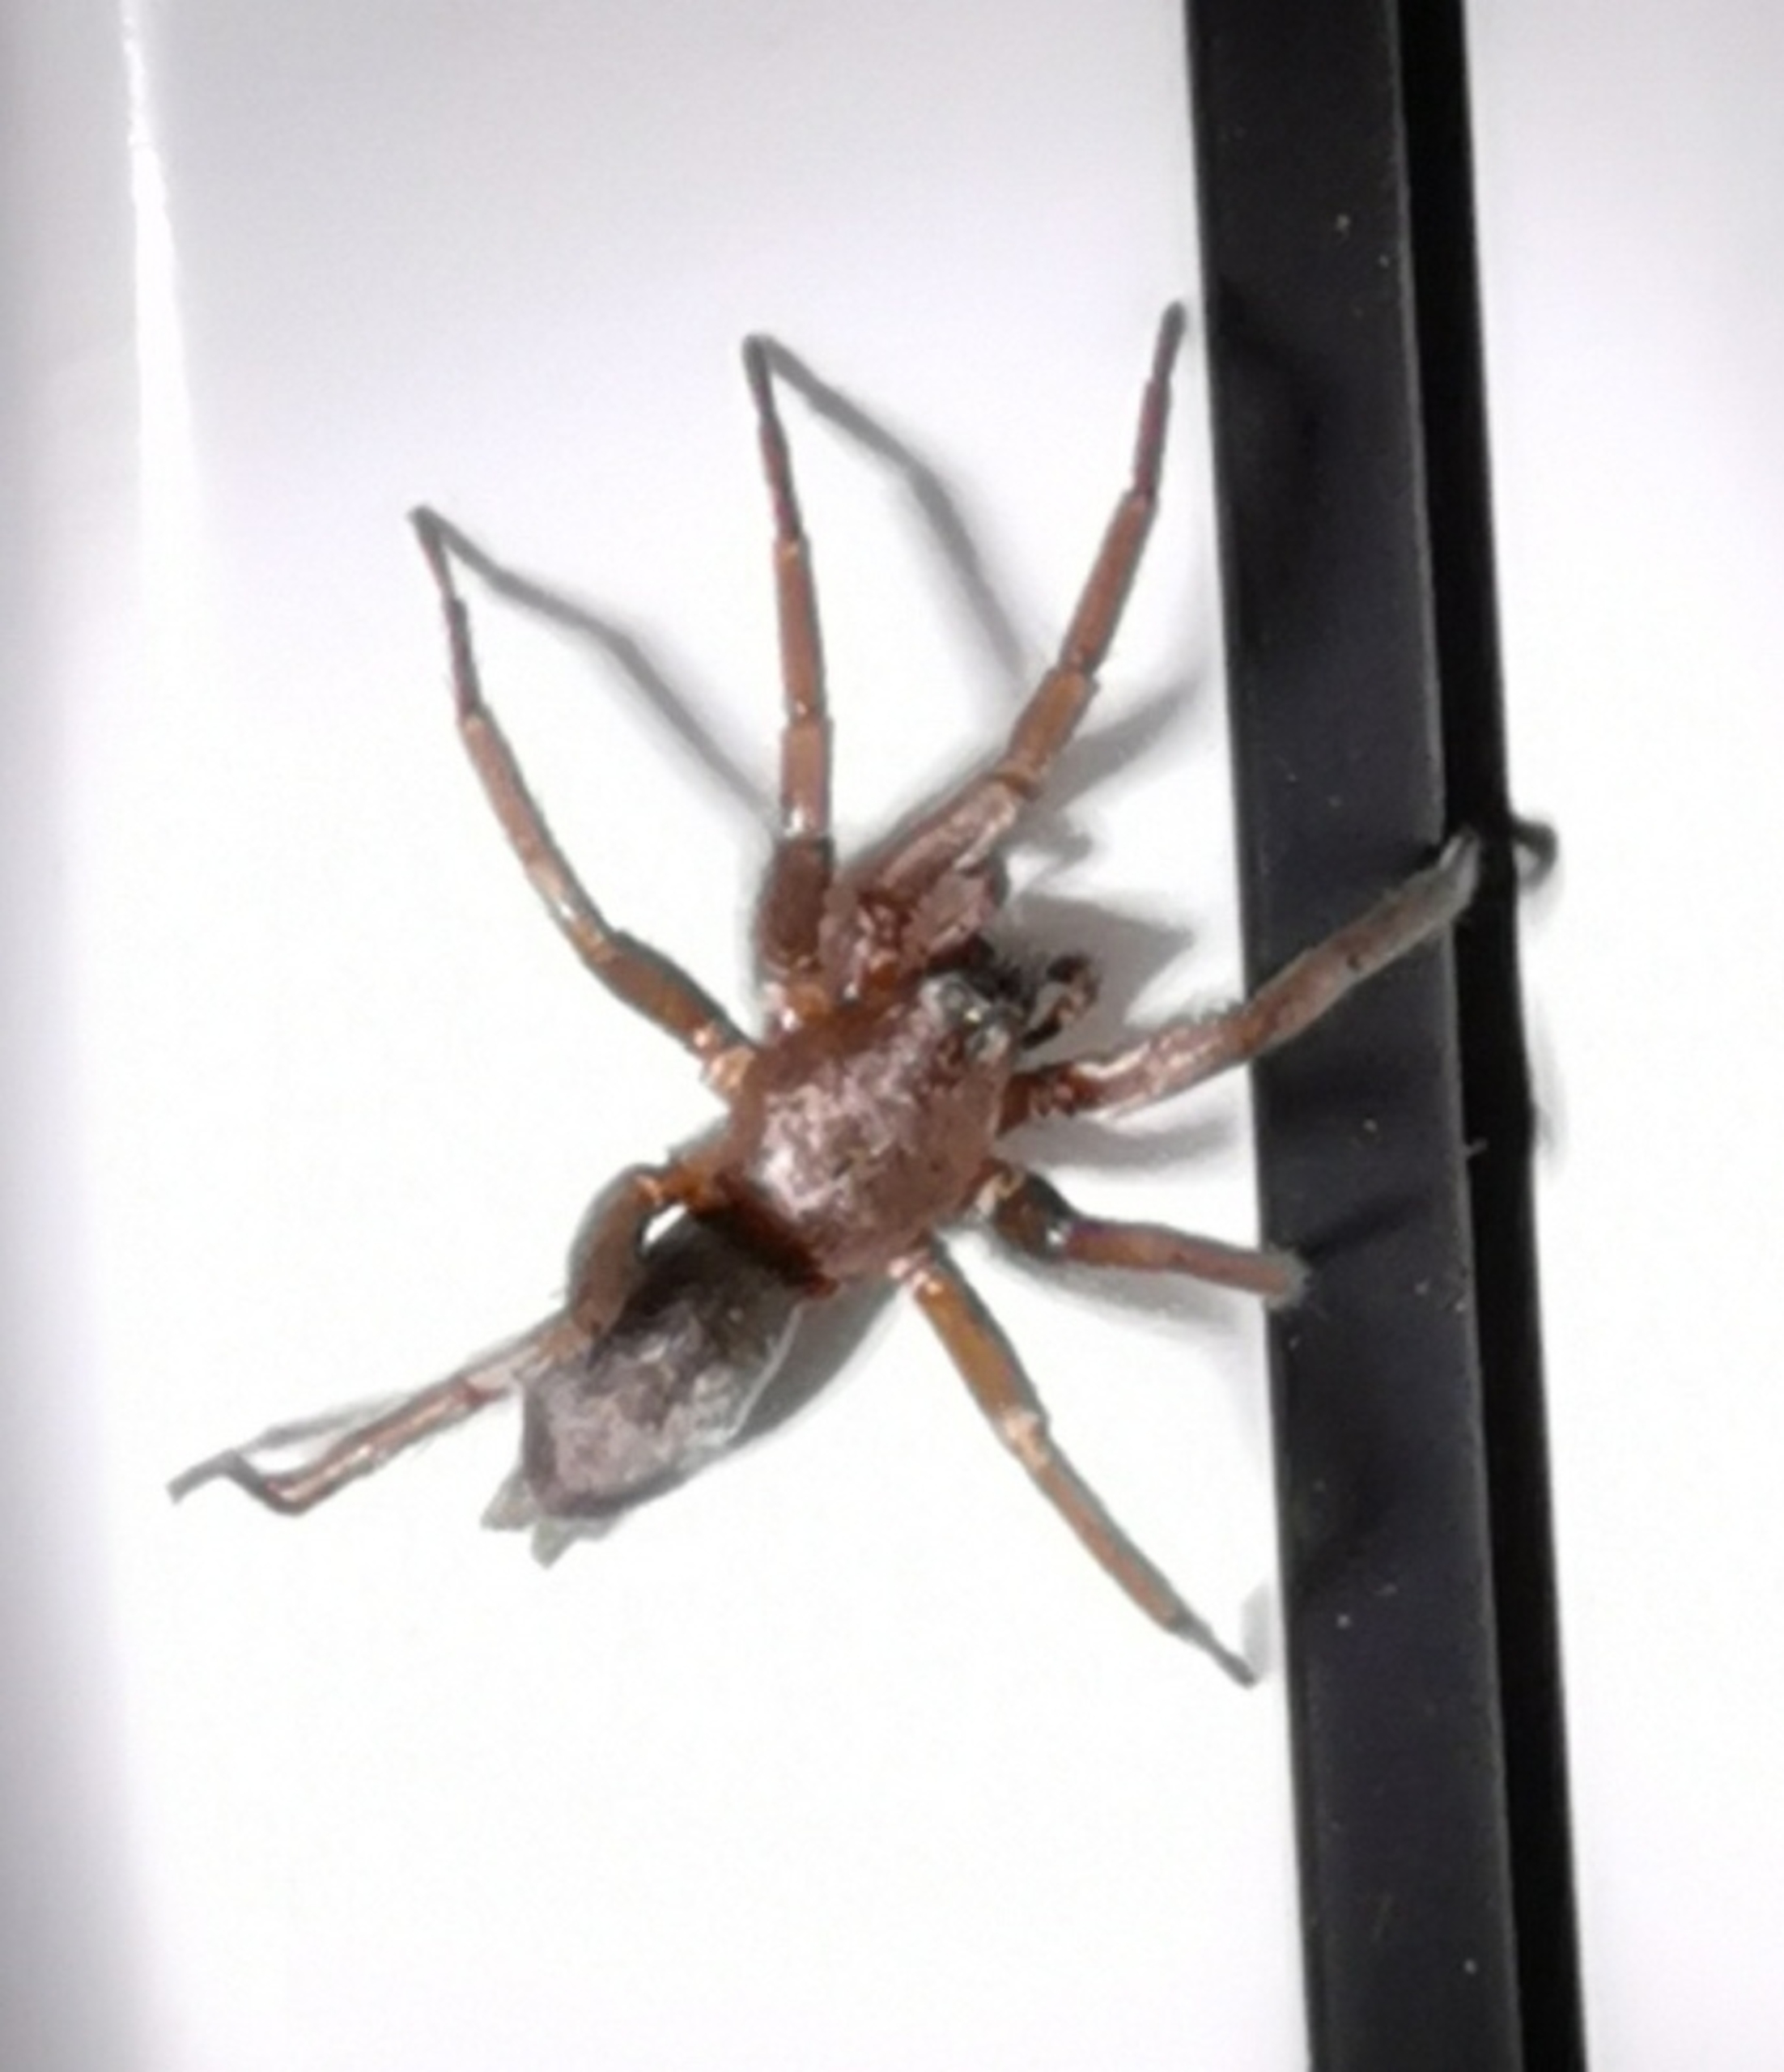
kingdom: Animalia
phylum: Arthropoda
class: Arachnida
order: Araneae
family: Gnaphosidae
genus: Scotophaeus
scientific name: Scotophaeus
